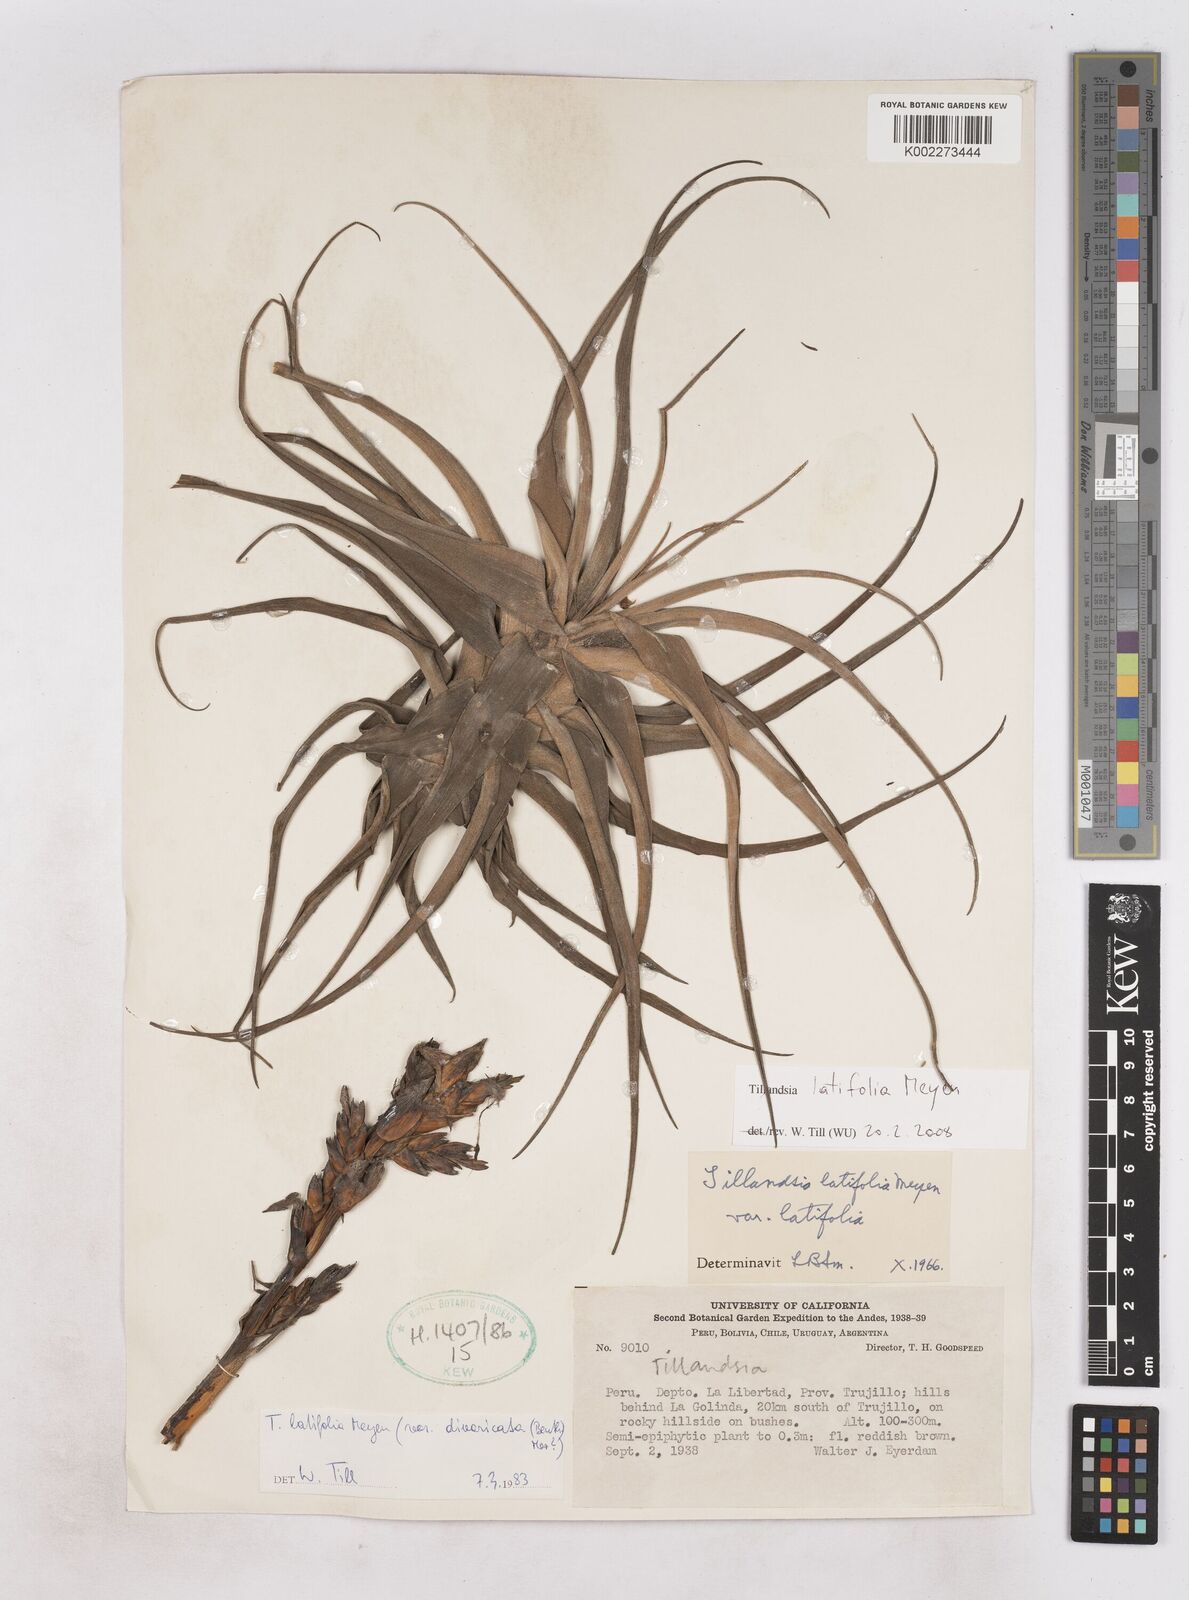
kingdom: Plantae
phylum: Tracheophyta
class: Liliopsida
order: Poales
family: Bromeliaceae
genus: Tillandsia
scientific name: Tillandsia latifolia
